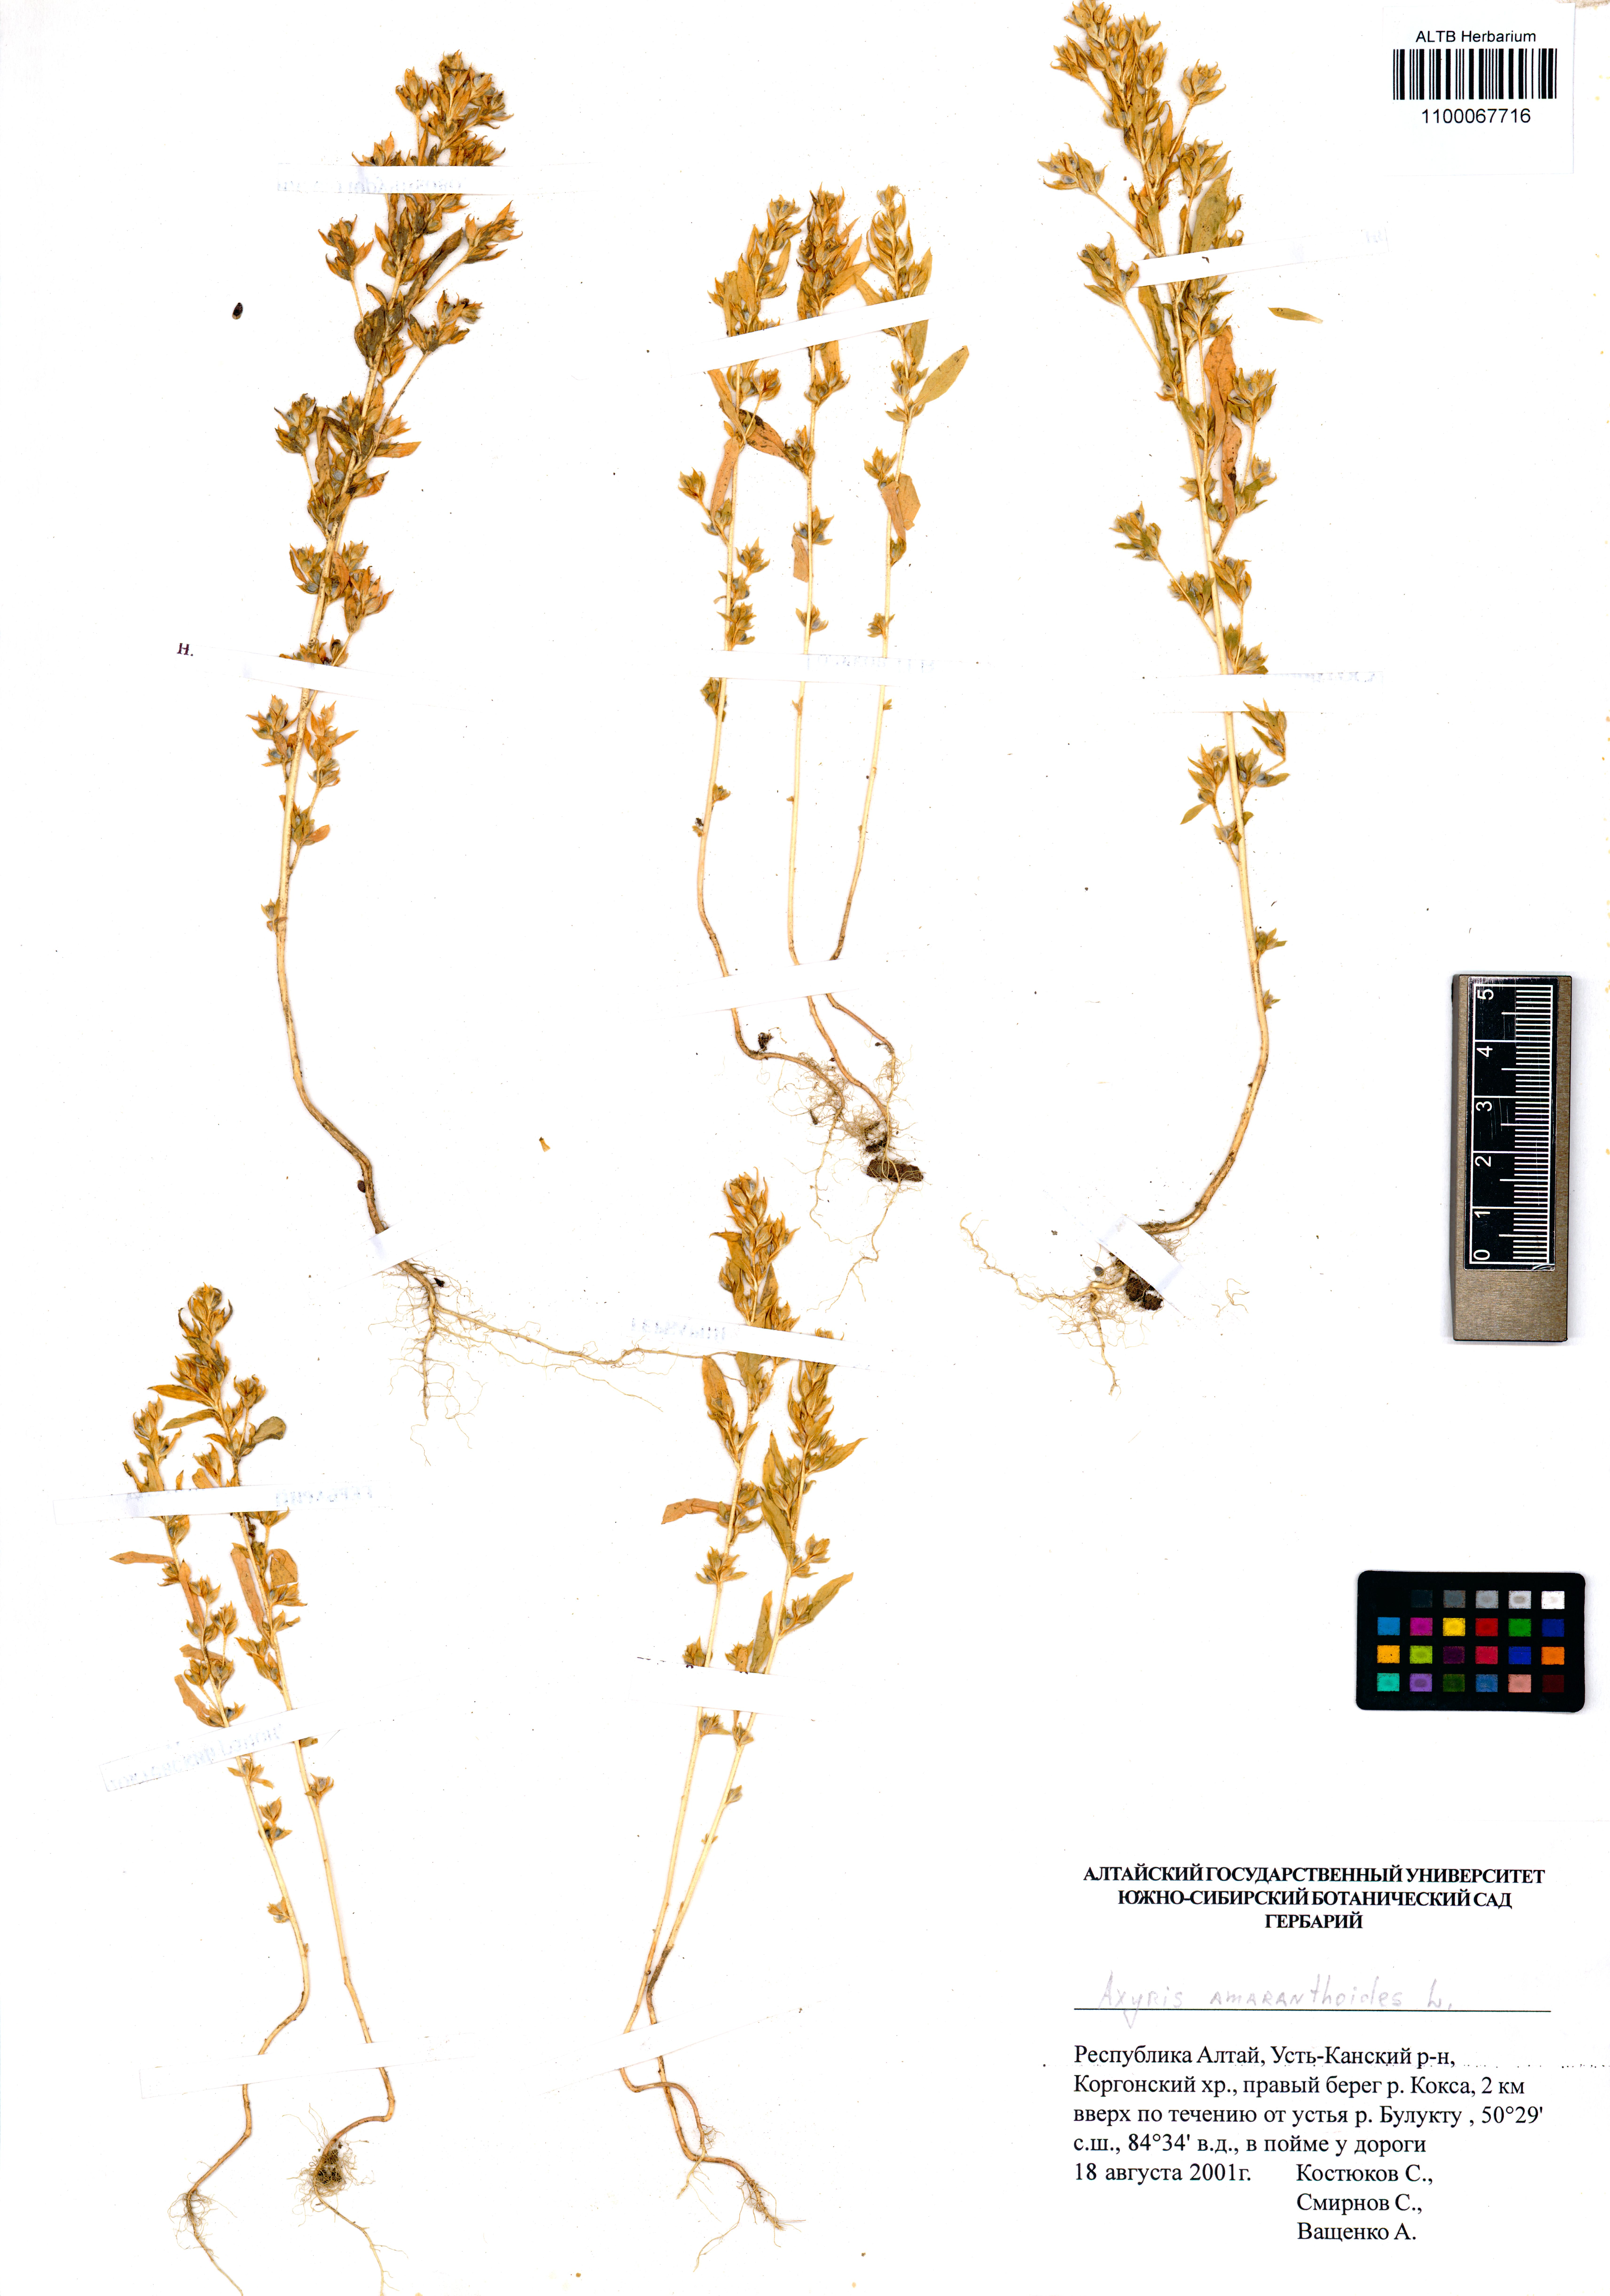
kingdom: Plantae
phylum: Tracheophyta
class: Magnoliopsida
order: Caryophyllales
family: Amaranthaceae
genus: Axyris
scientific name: Axyris amaranthoides
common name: Russian pigweed
